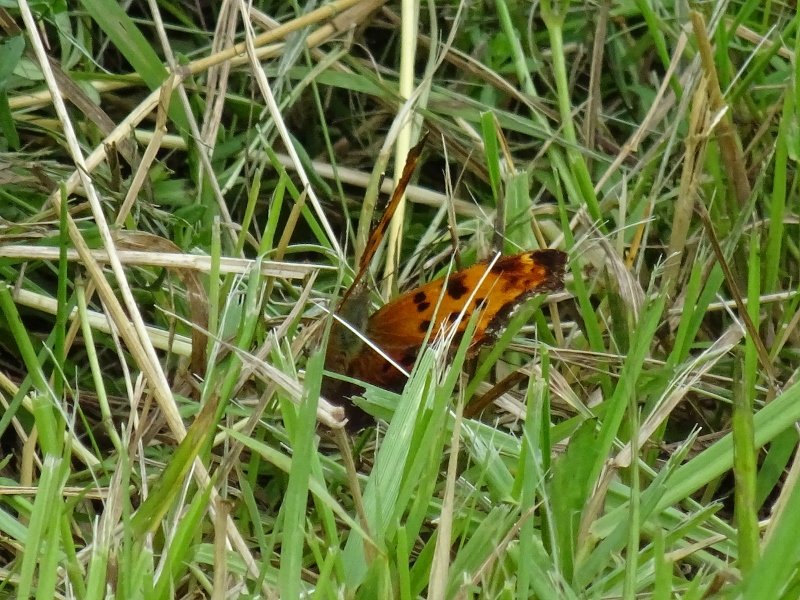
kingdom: Animalia
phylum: Arthropoda
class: Insecta
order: Lepidoptera
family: Nymphalidae
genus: Polygonia
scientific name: Polygonia
